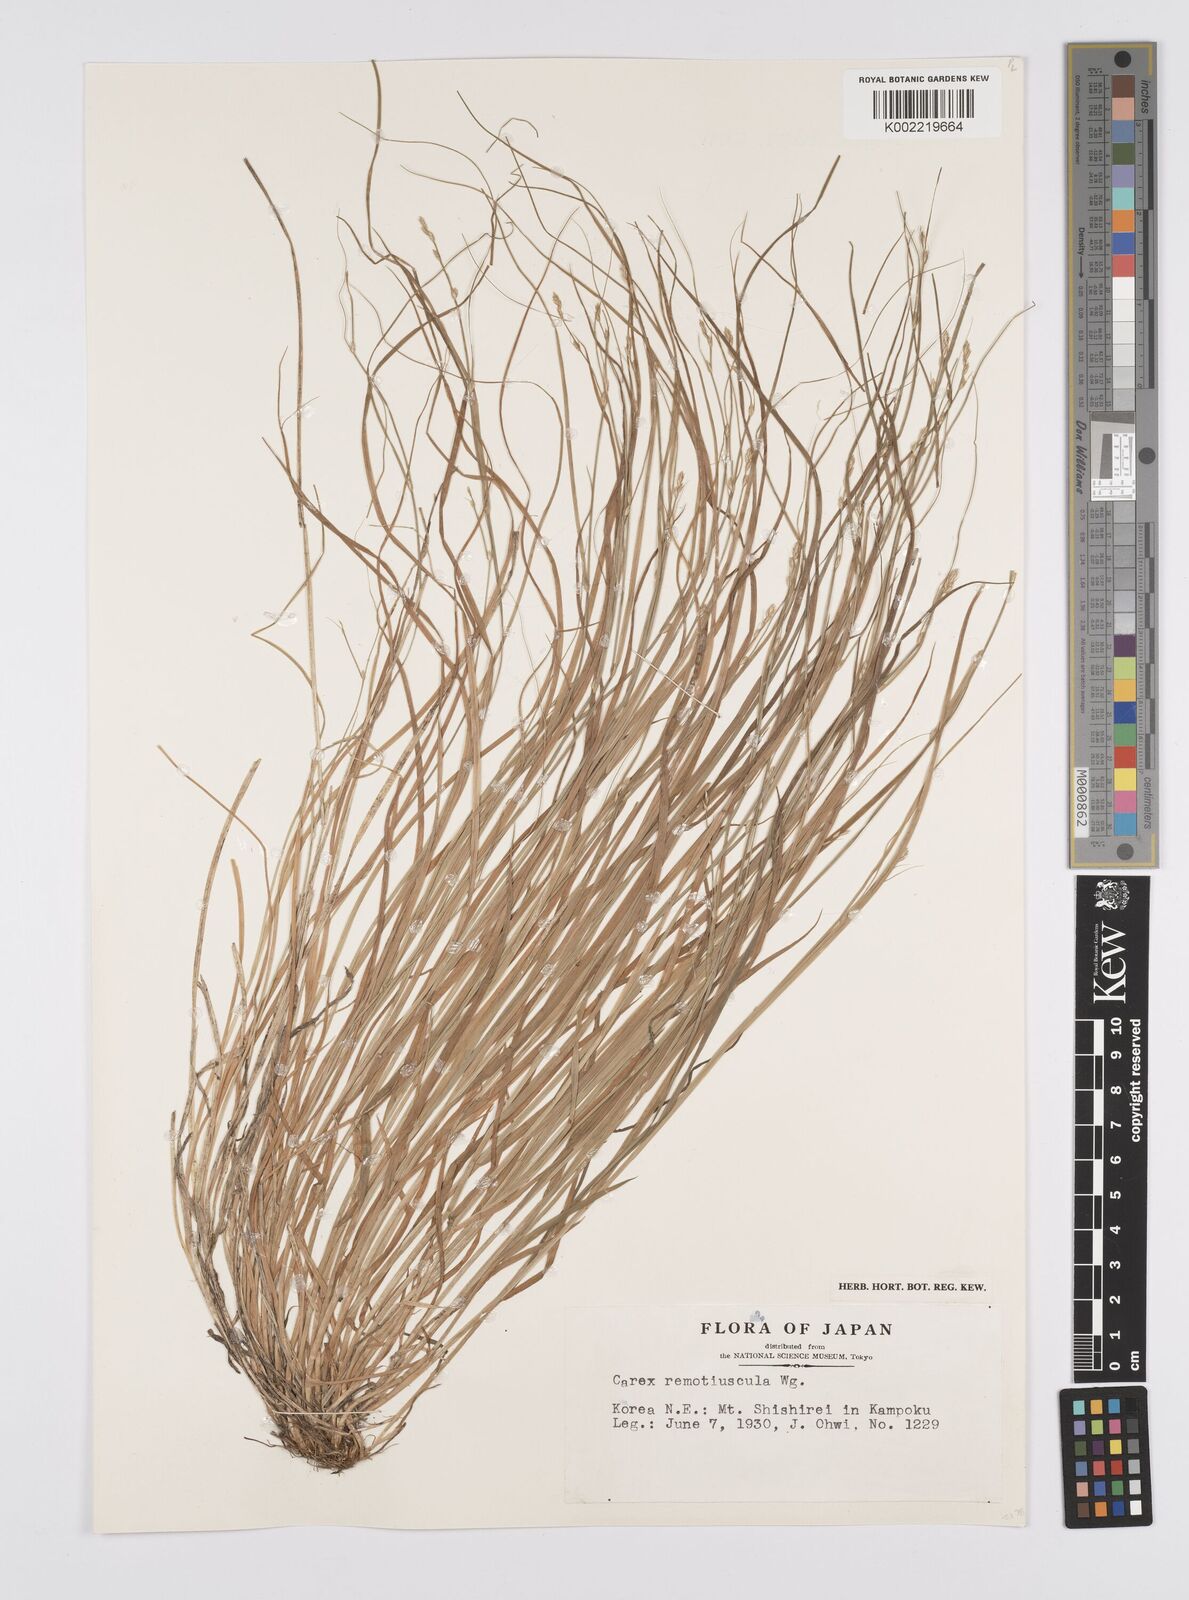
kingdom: Plantae
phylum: Tracheophyta
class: Liliopsida
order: Poales
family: Cyperaceae
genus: Carex
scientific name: Carex traiziscana
